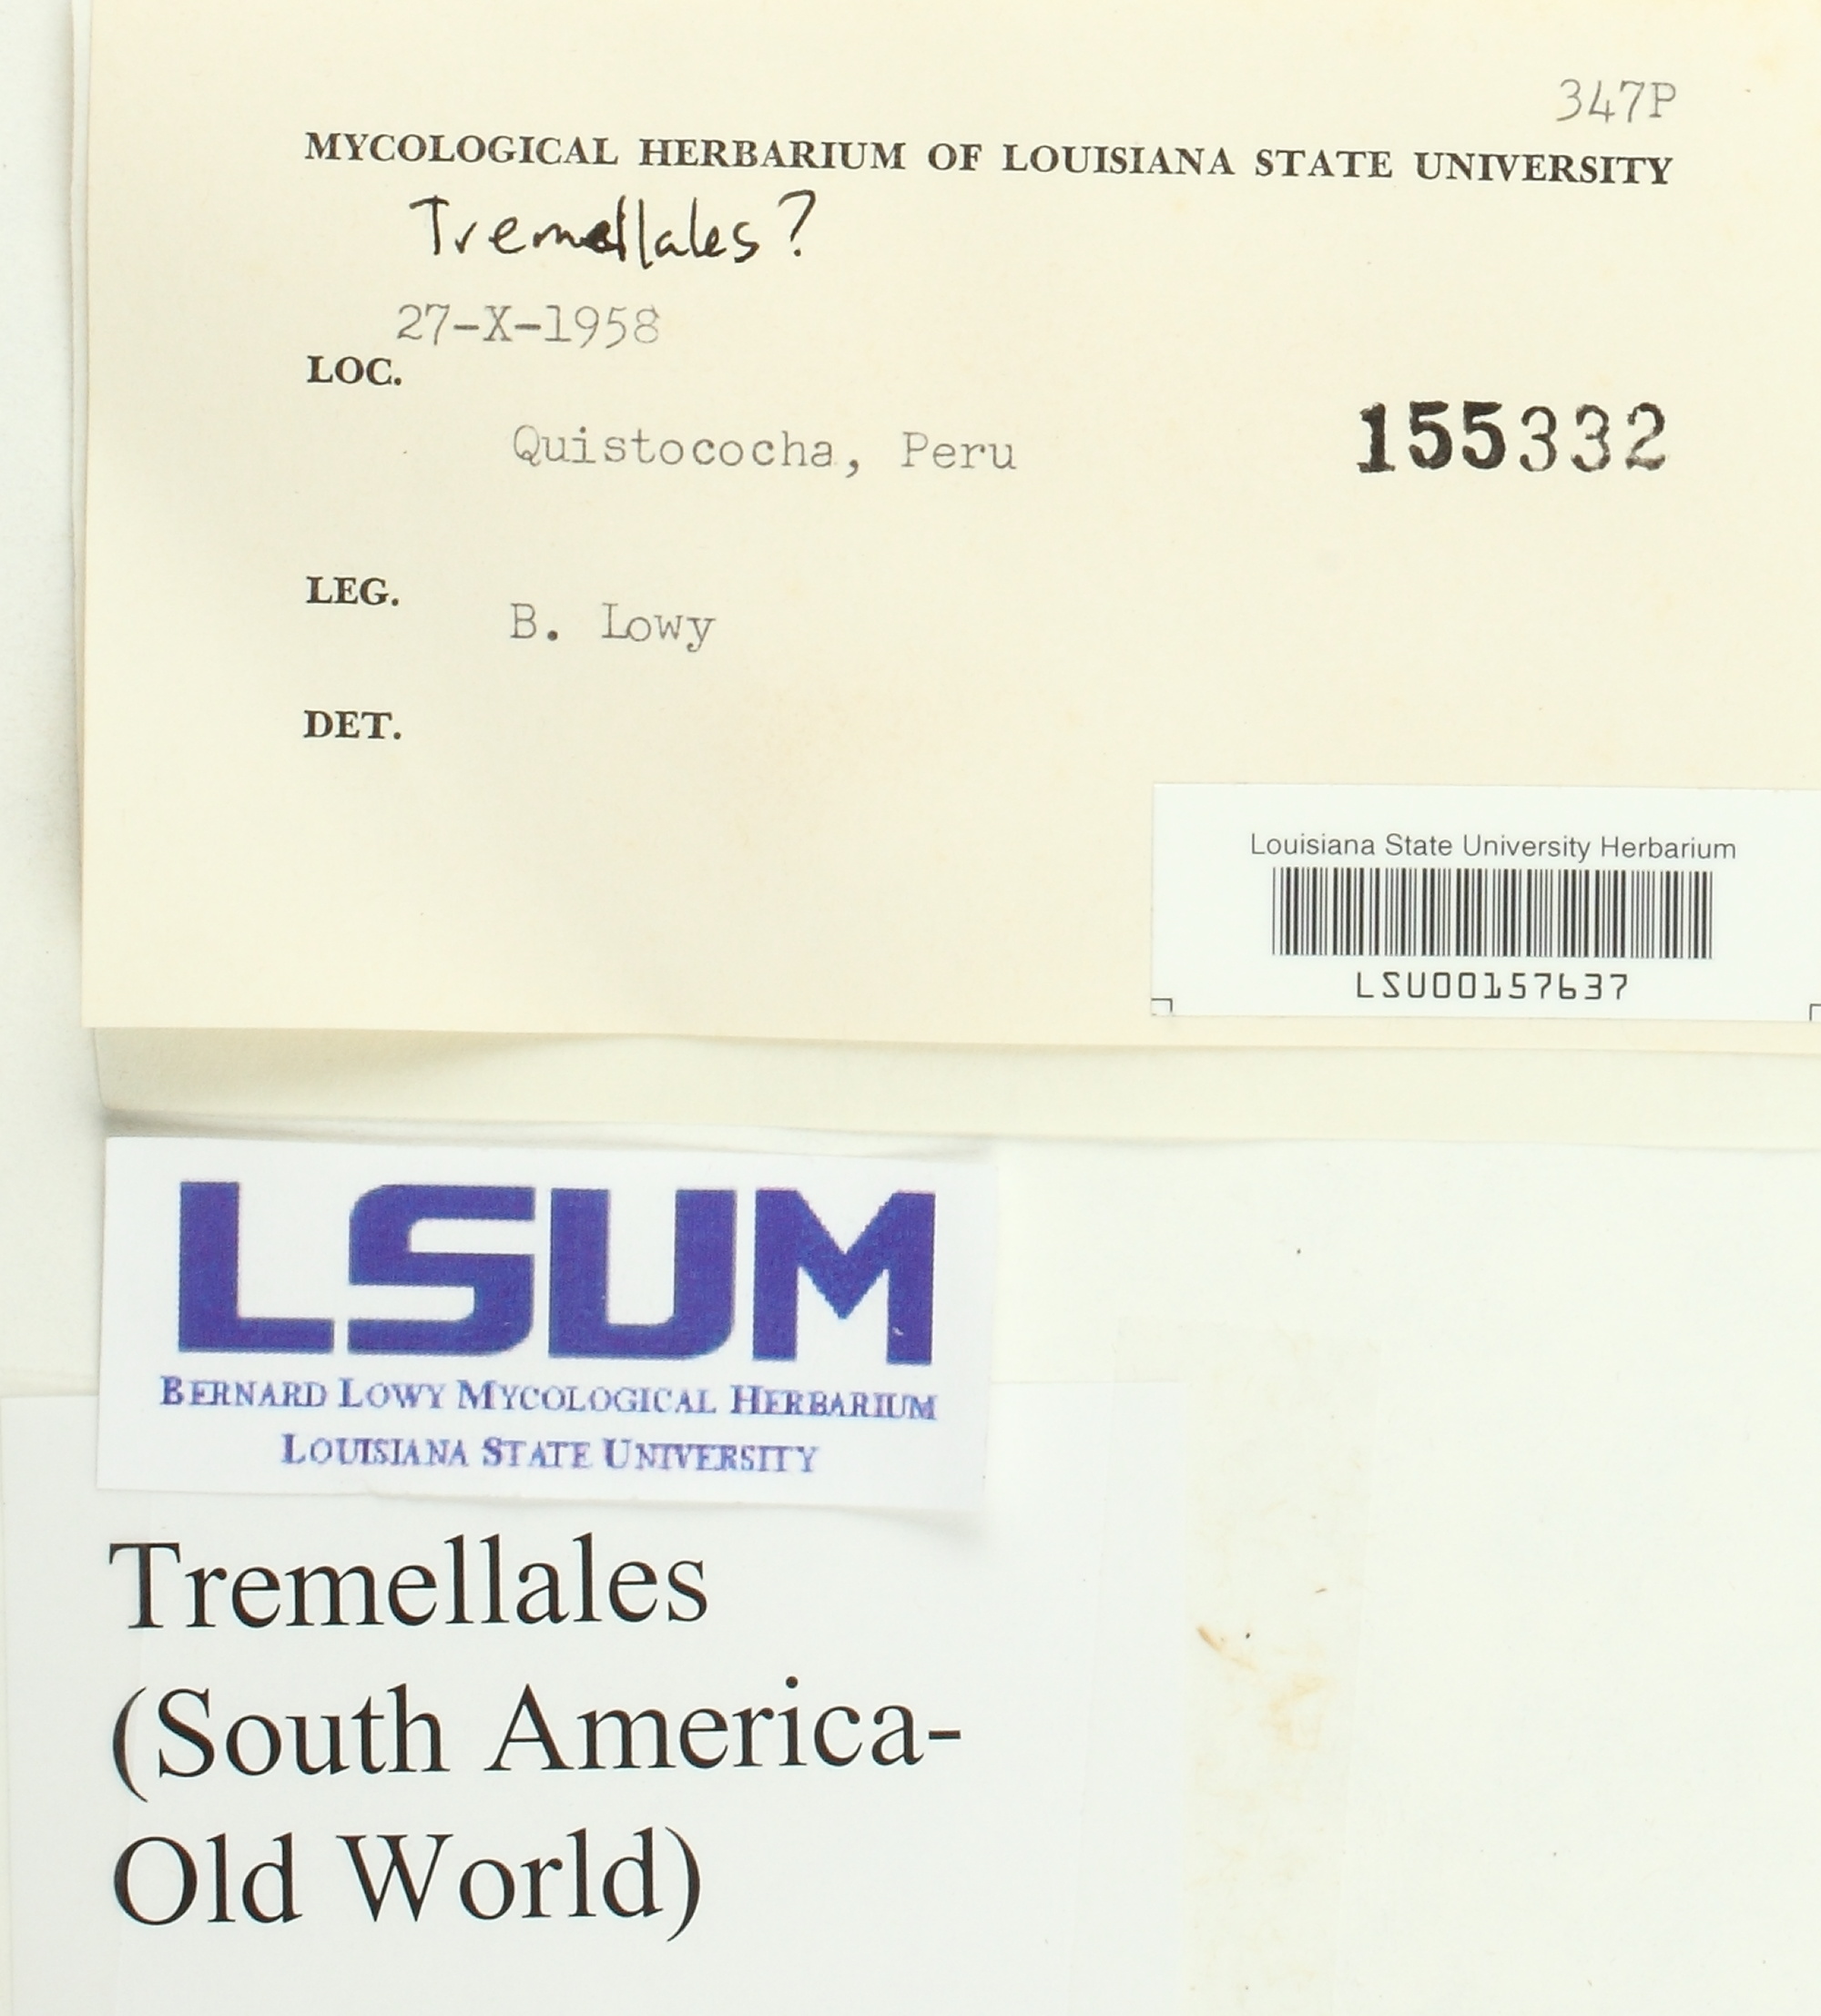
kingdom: Fungi
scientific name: Fungi
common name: Fungi
